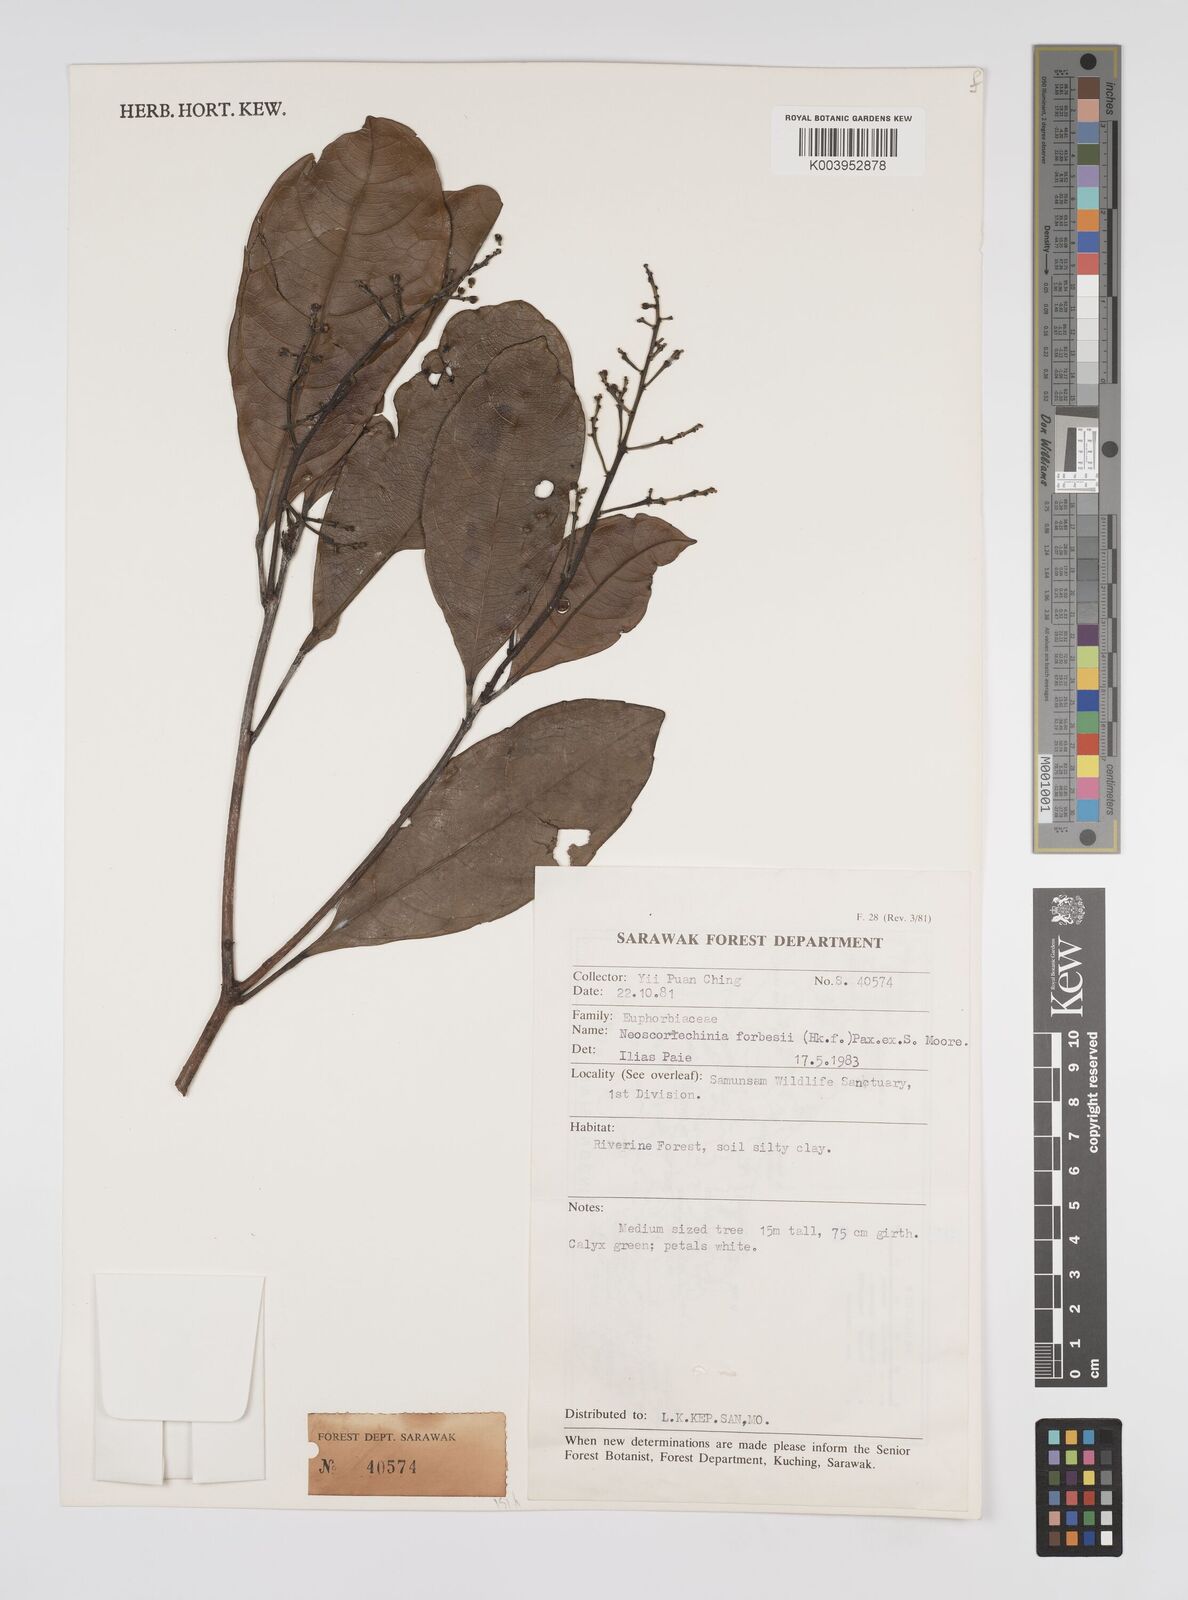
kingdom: Plantae
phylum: Tracheophyta
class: Magnoliopsida
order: Malpighiales
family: Euphorbiaceae
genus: Neoscortechinia
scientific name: Neoscortechinia philippinensis
